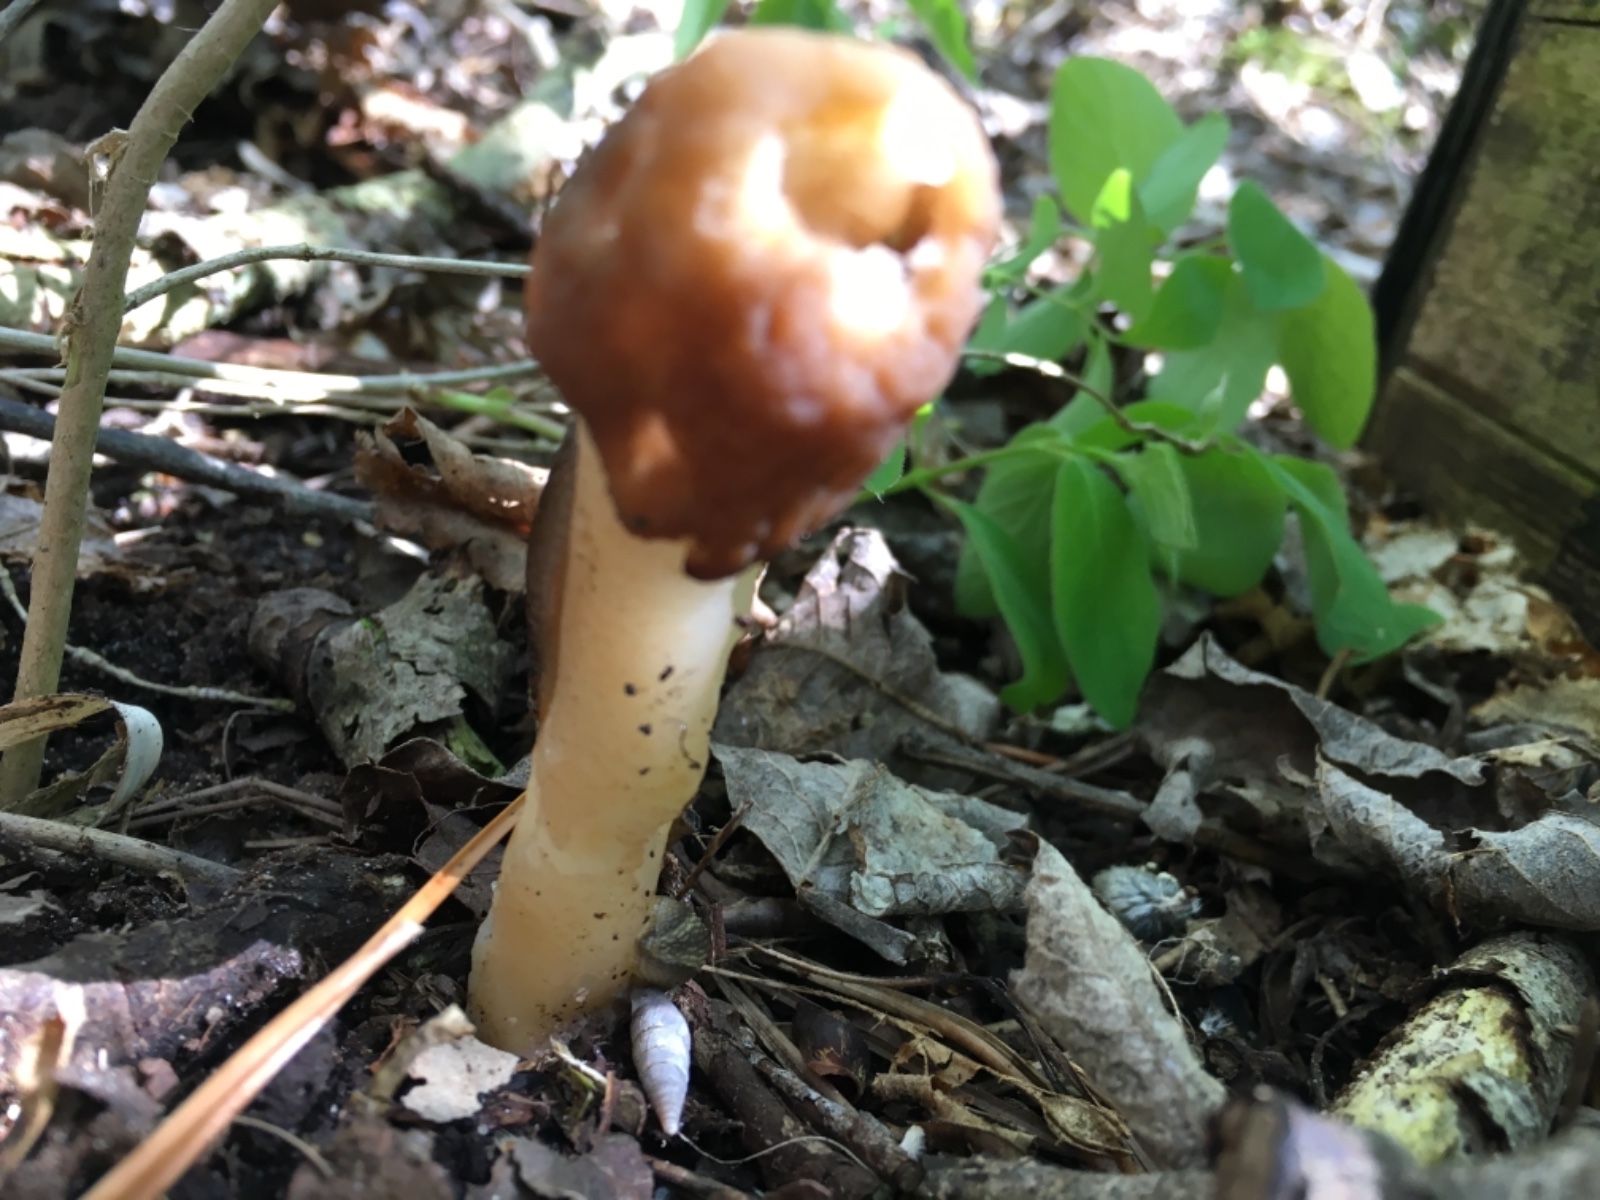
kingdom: Fungi
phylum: Ascomycota
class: Pezizomycetes
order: Pezizales
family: Morchellaceae
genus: Verpa
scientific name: Verpa conica
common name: glat klokkemorkel
